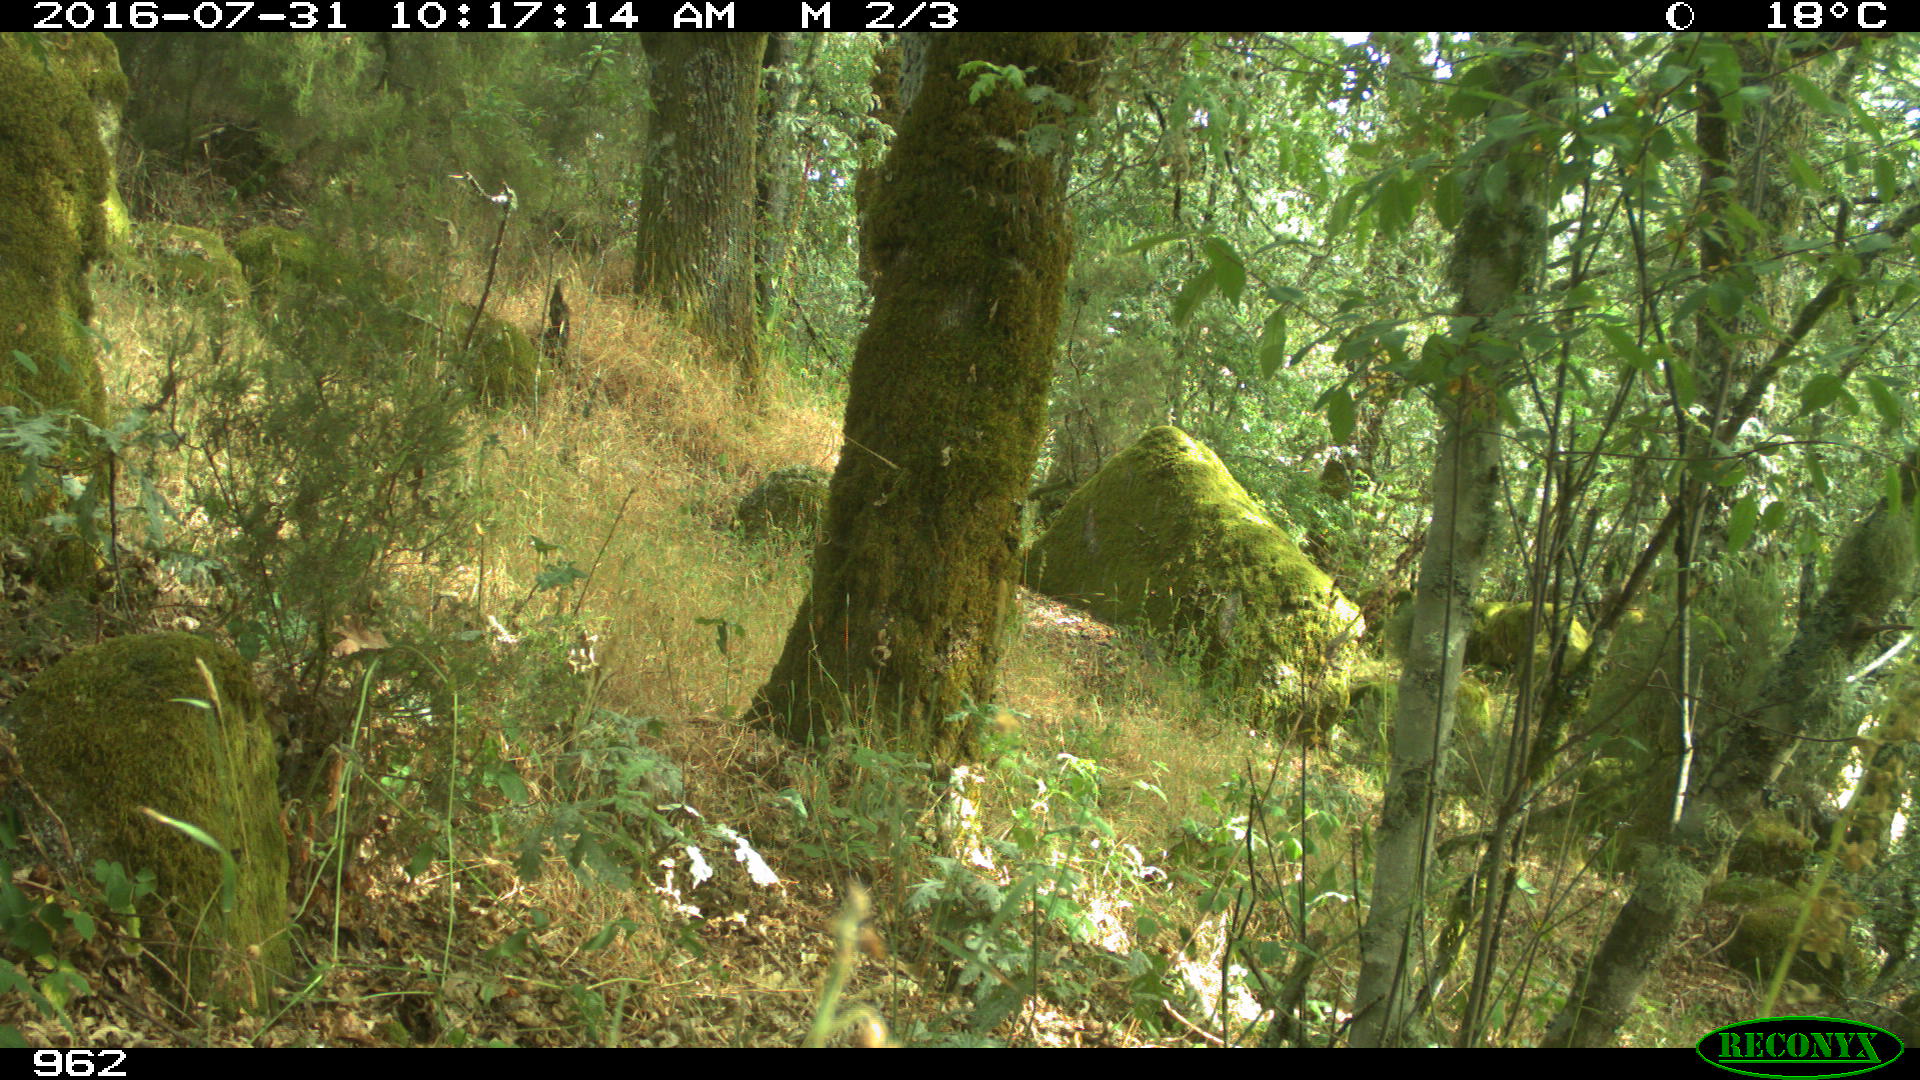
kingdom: Animalia
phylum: Chordata
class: Mammalia
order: Carnivora
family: Canidae
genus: Canis
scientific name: Canis lupus
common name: Gray wolf
